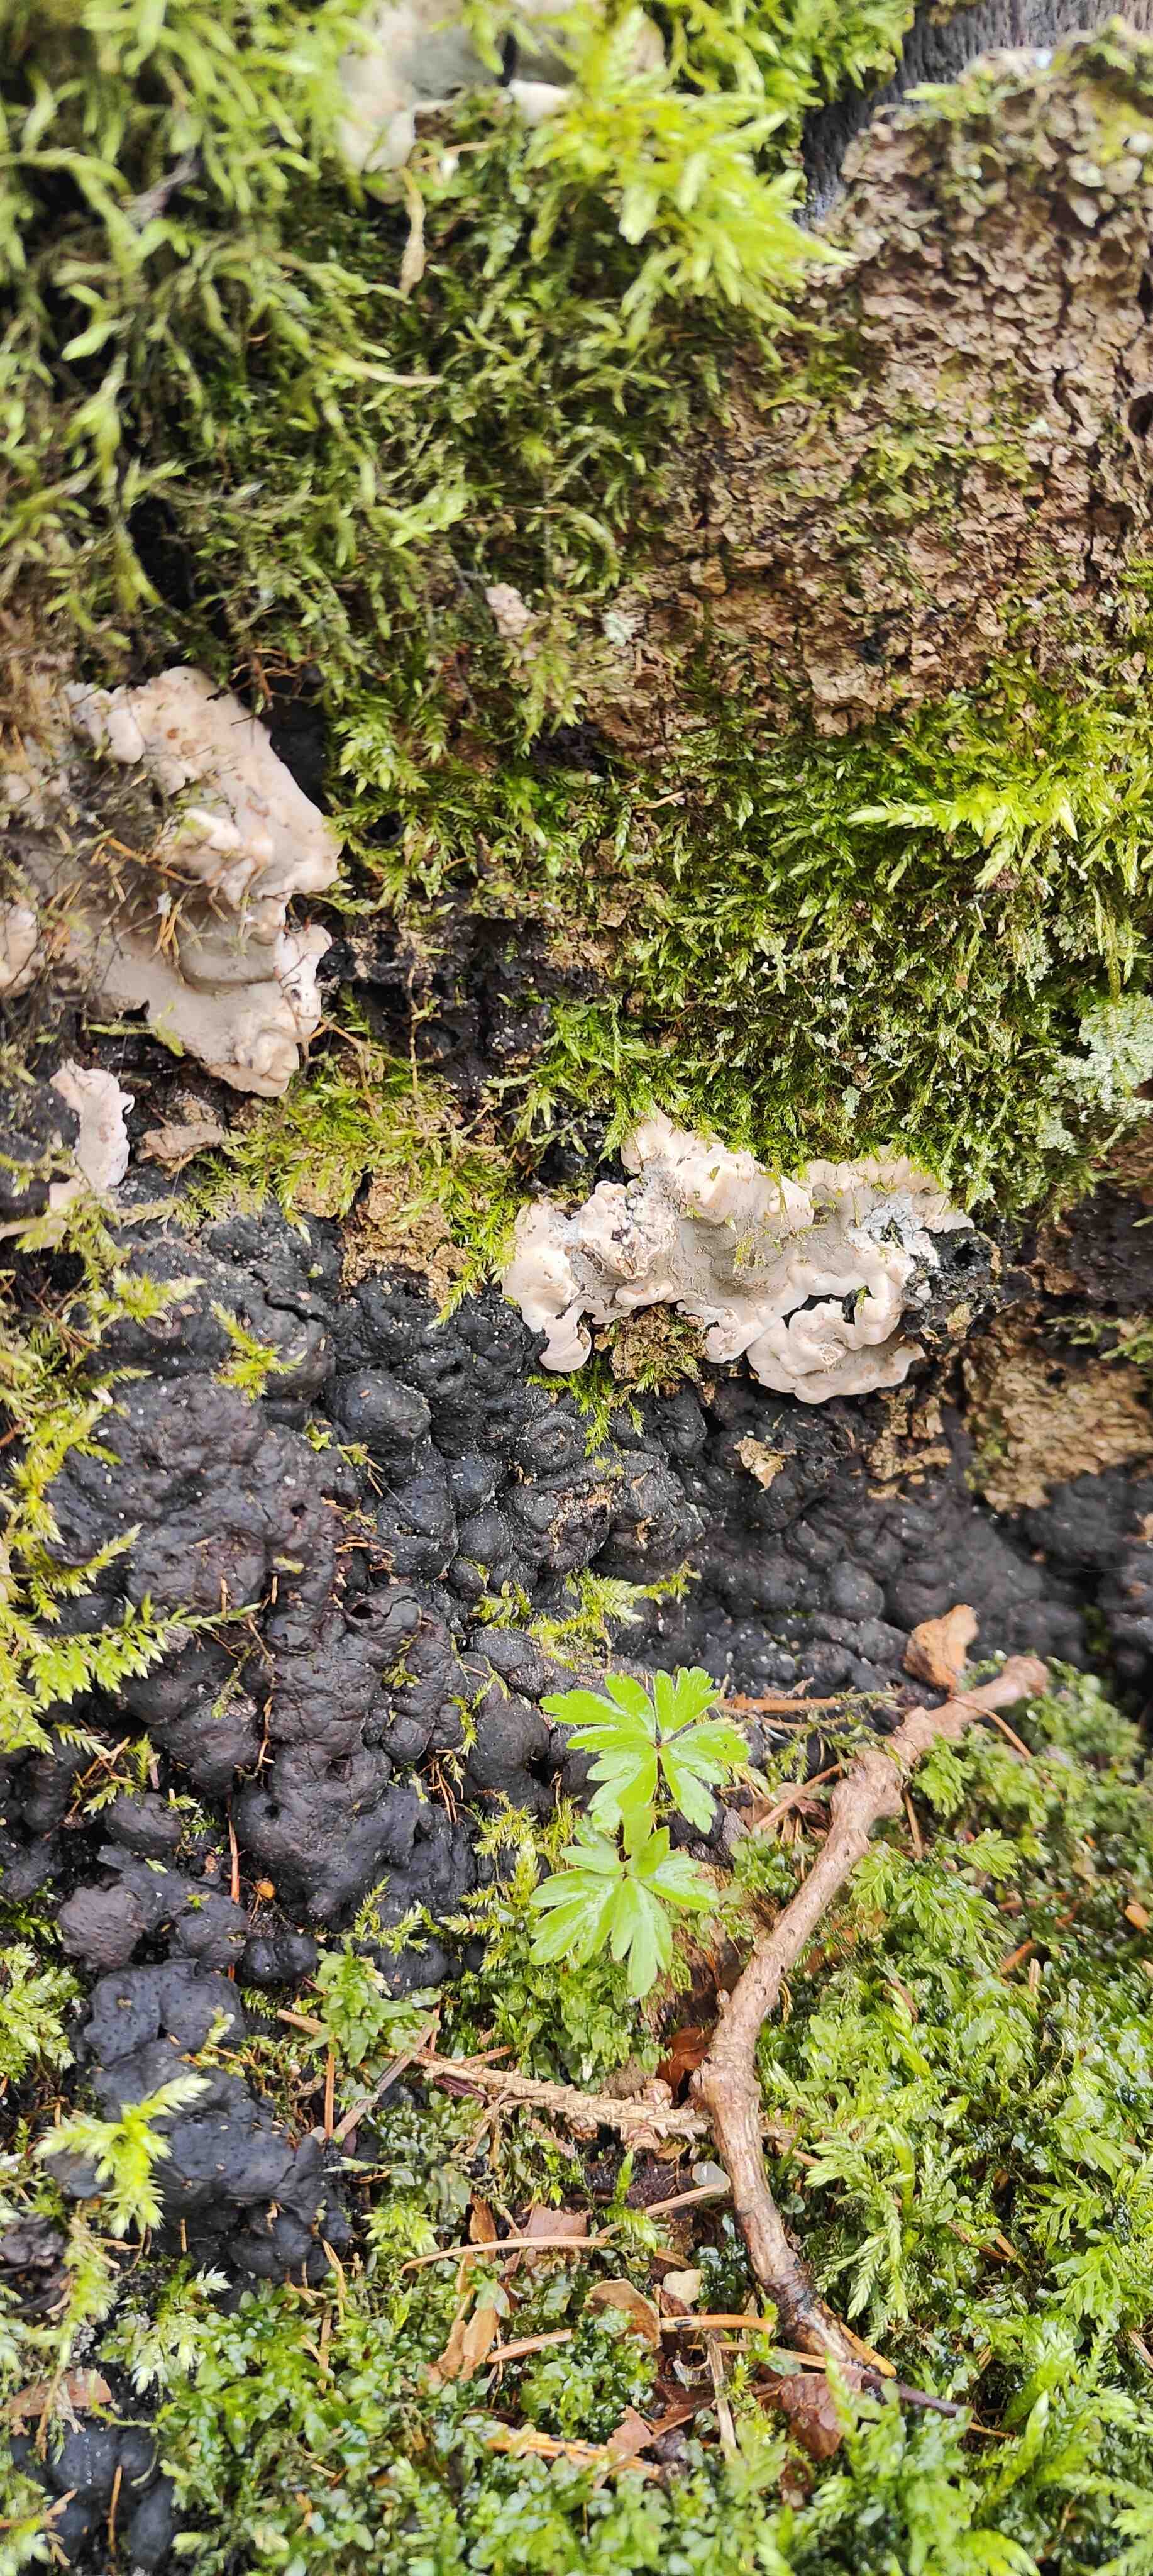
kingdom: Fungi
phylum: Ascomycota
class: Sordariomycetes
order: Xylariales
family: Xylariaceae
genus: Kretzschmaria
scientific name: Kretzschmaria deusta
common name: stor kulsvamp
